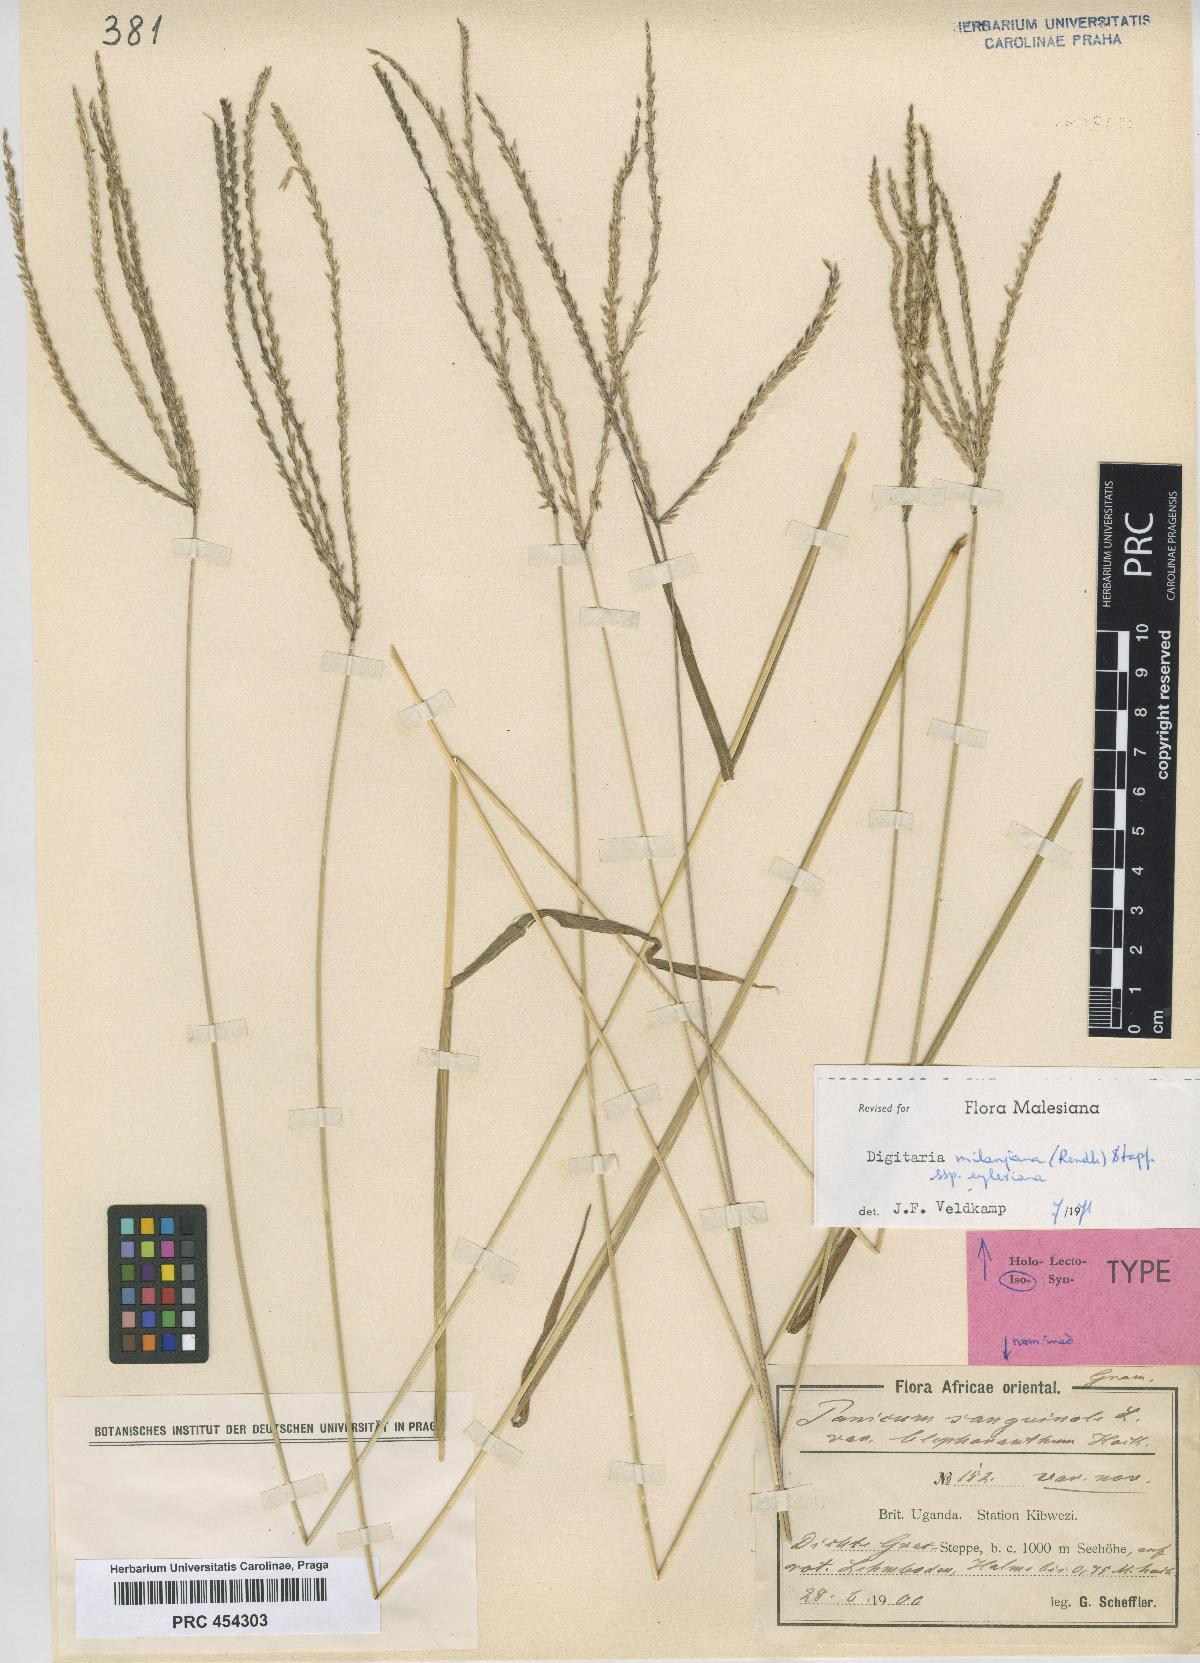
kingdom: Plantae
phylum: Tracheophyta
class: Liliopsida
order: Poales
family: Poaceae
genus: Digitaria
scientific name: Digitaria milanjiana
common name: Madagascar crabgrass
